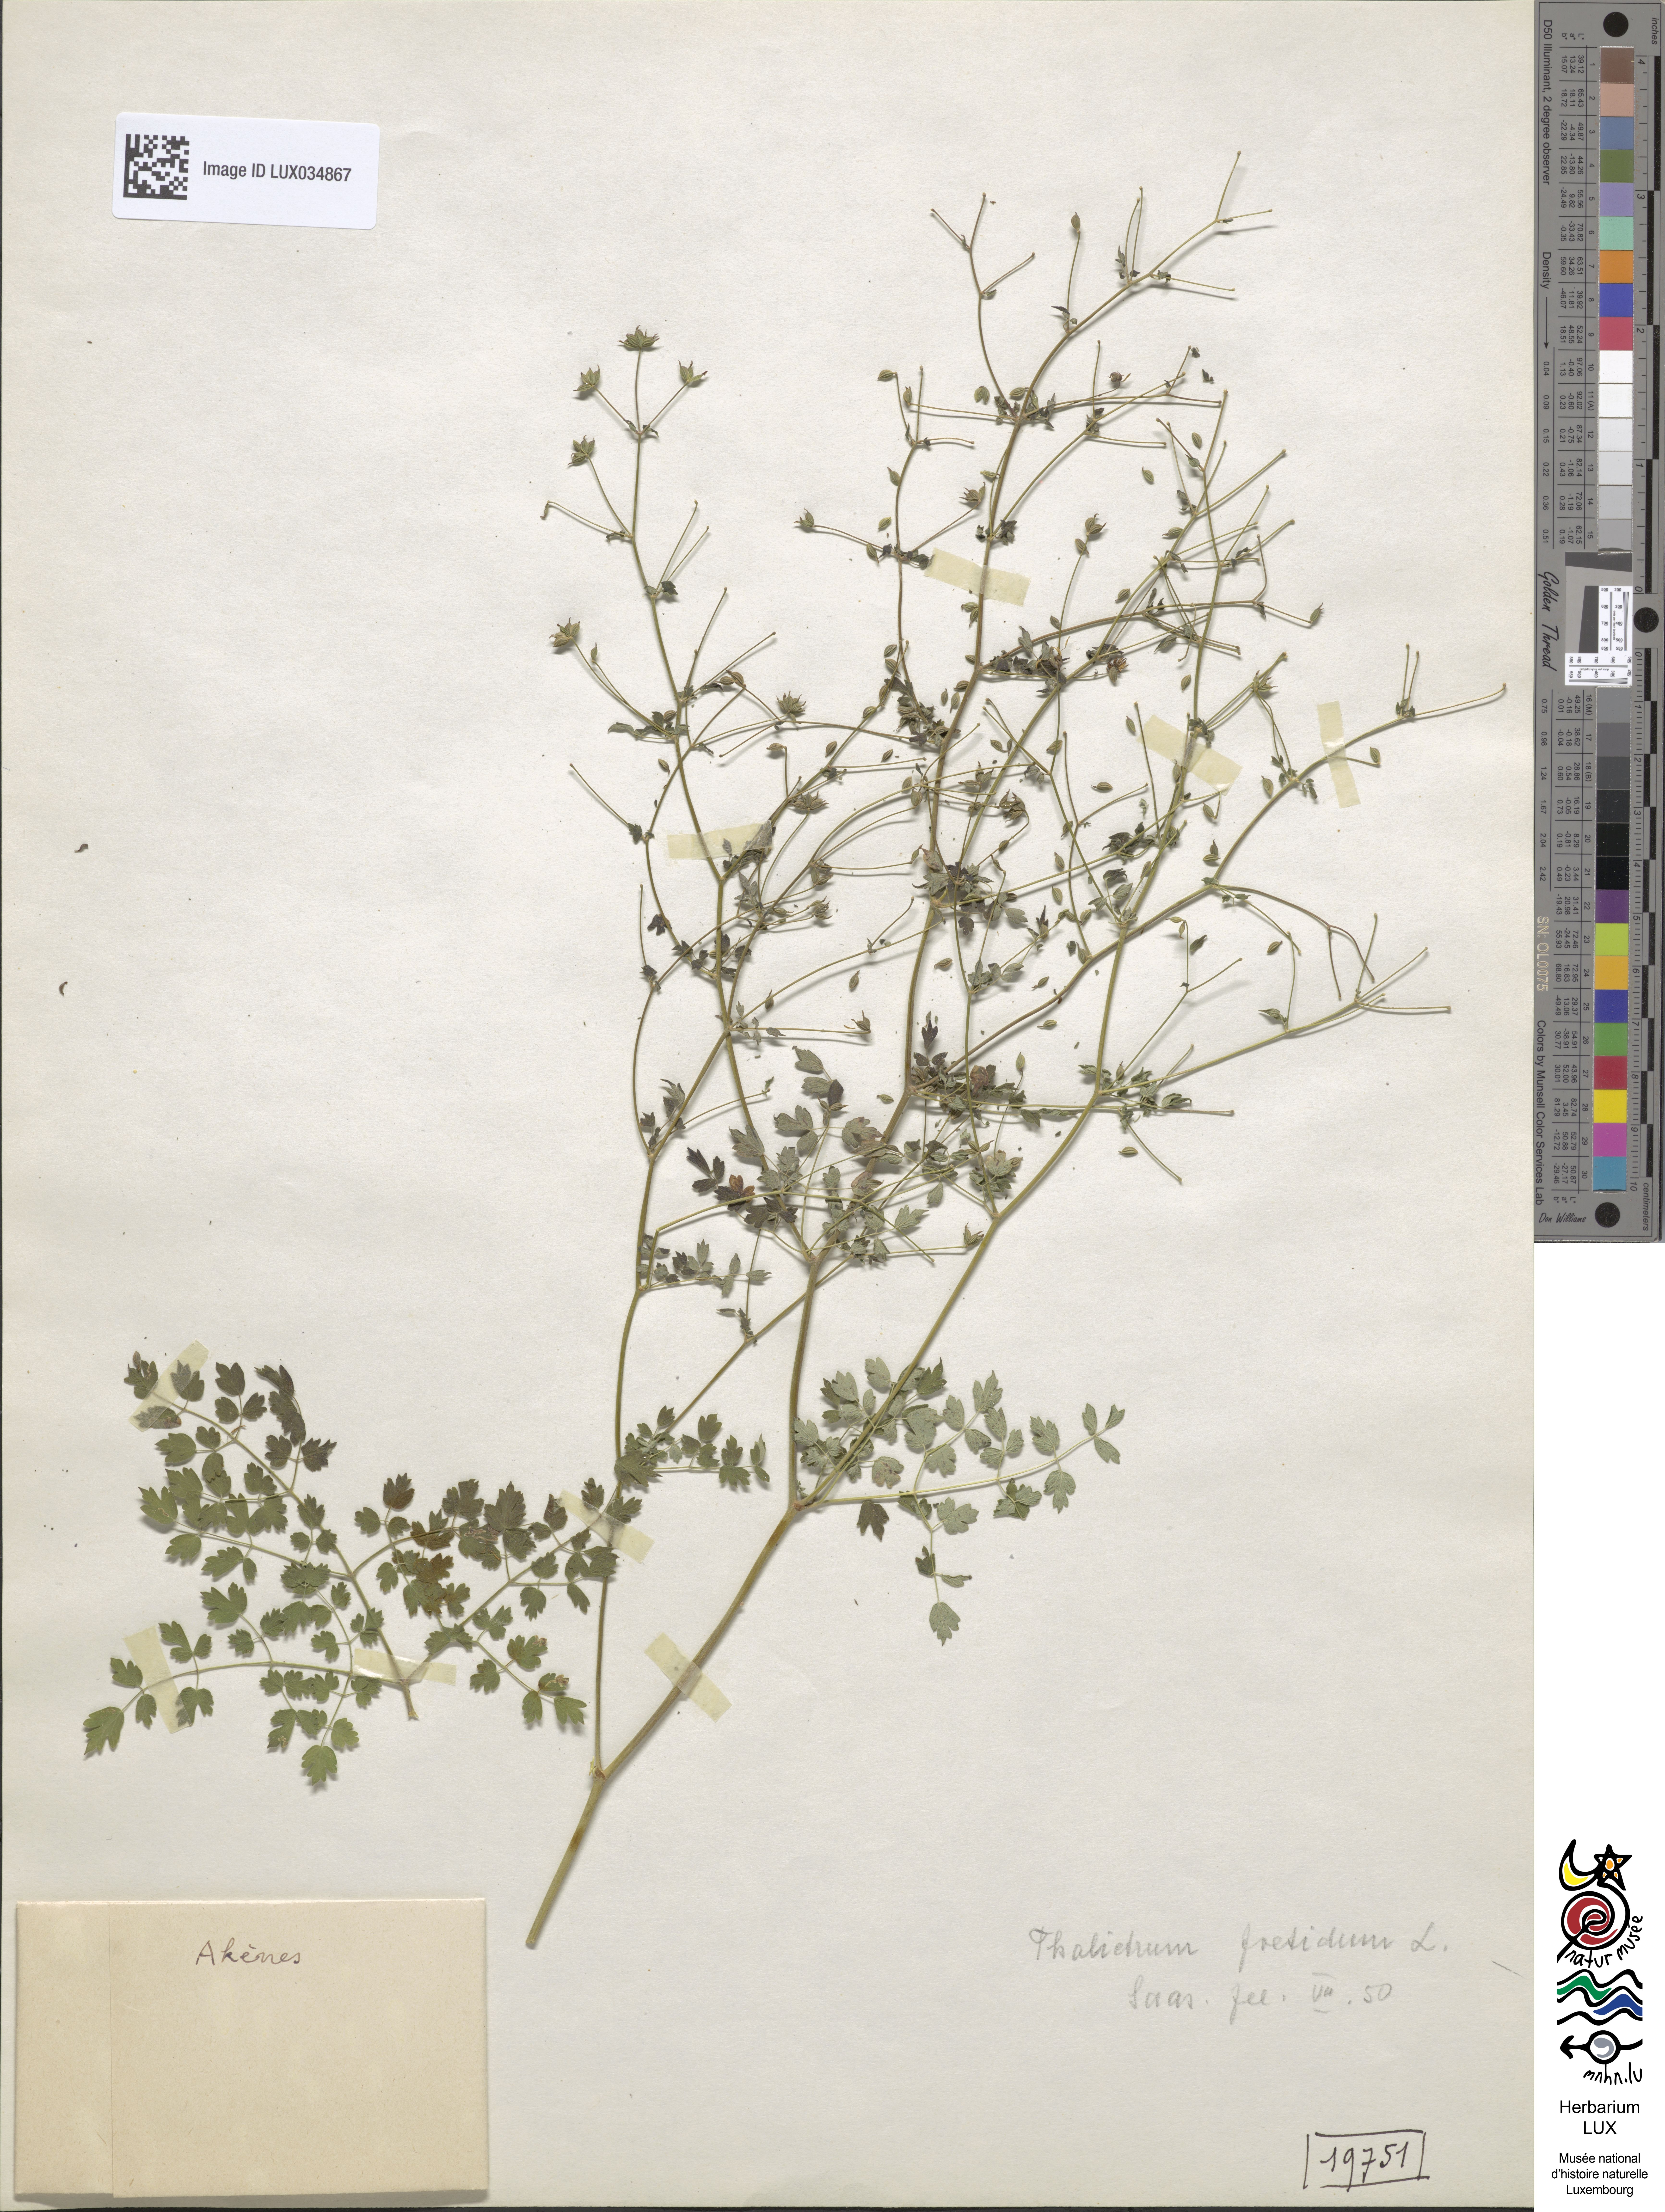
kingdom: Plantae
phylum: Tracheophyta
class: Magnoliopsida
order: Ranunculales
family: Ranunculaceae
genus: Thalictrum
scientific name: Thalictrum foetidum
